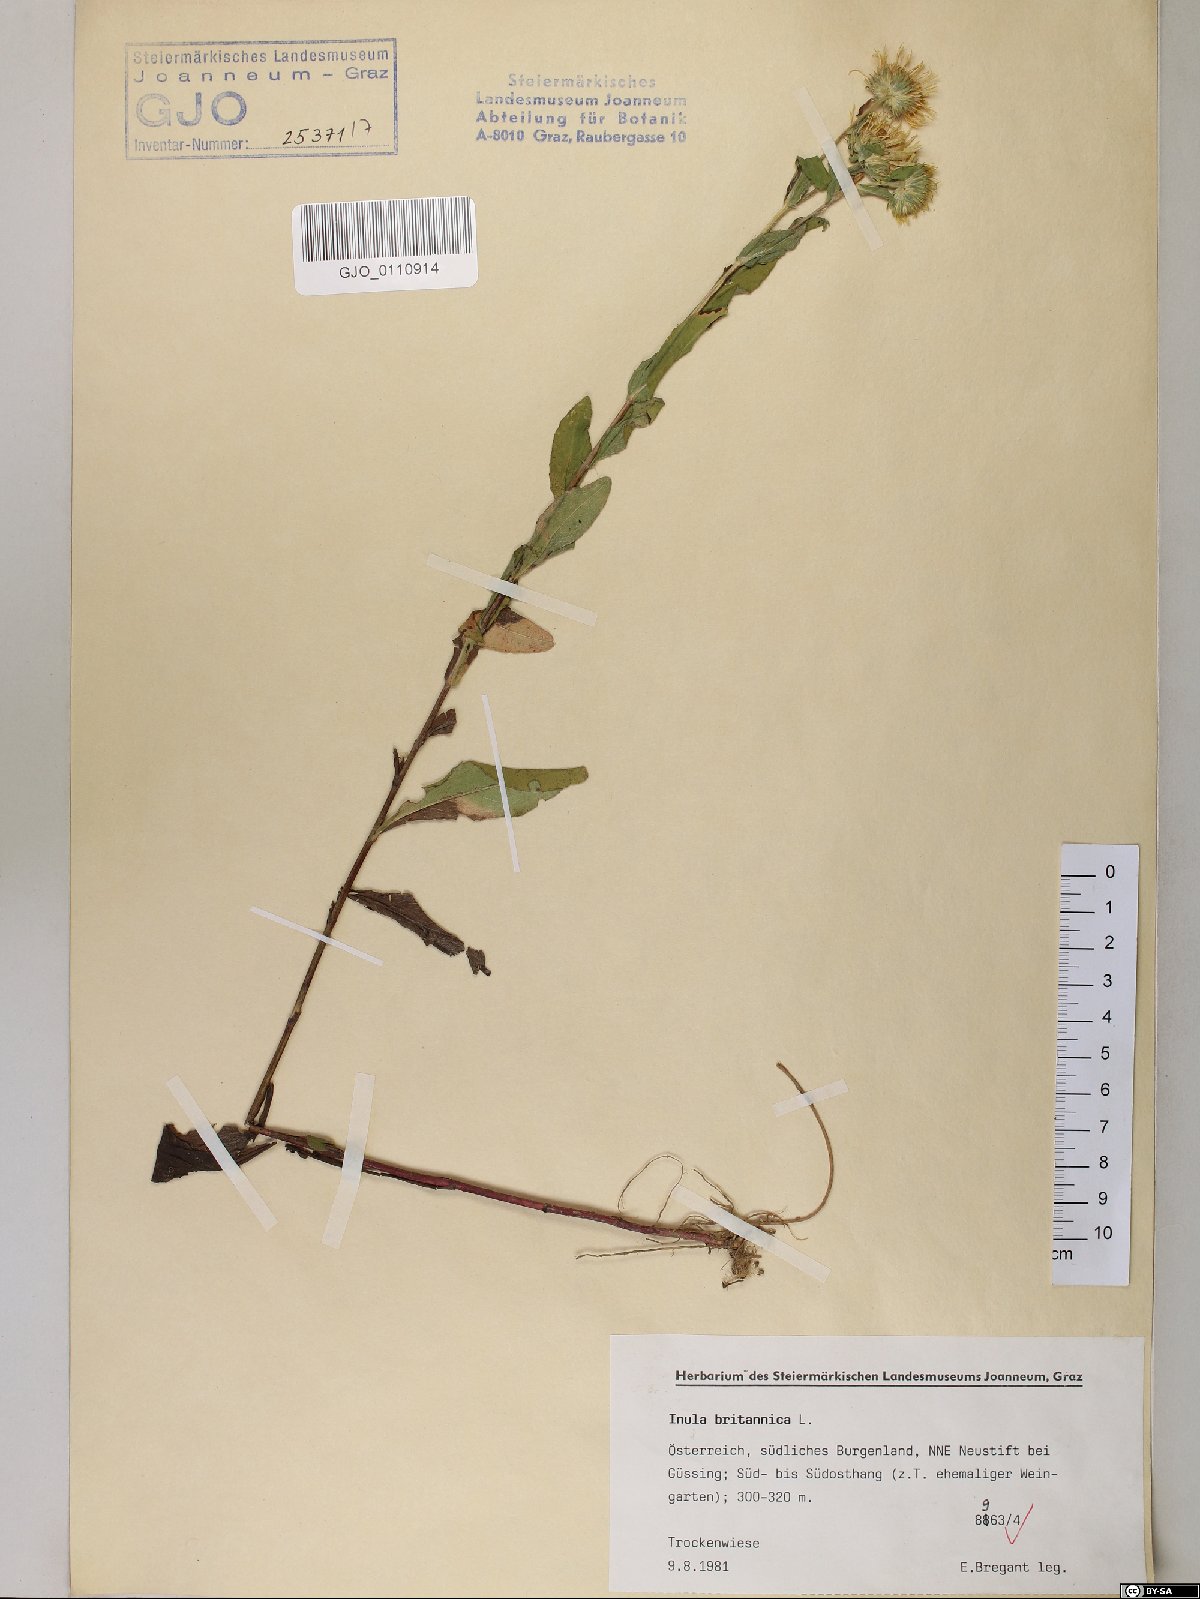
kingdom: Plantae
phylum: Tracheophyta
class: Magnoliopsida
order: Asterales
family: Asteraceae
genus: Pentanema
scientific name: Pentanema britannicum
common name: British elecampane
